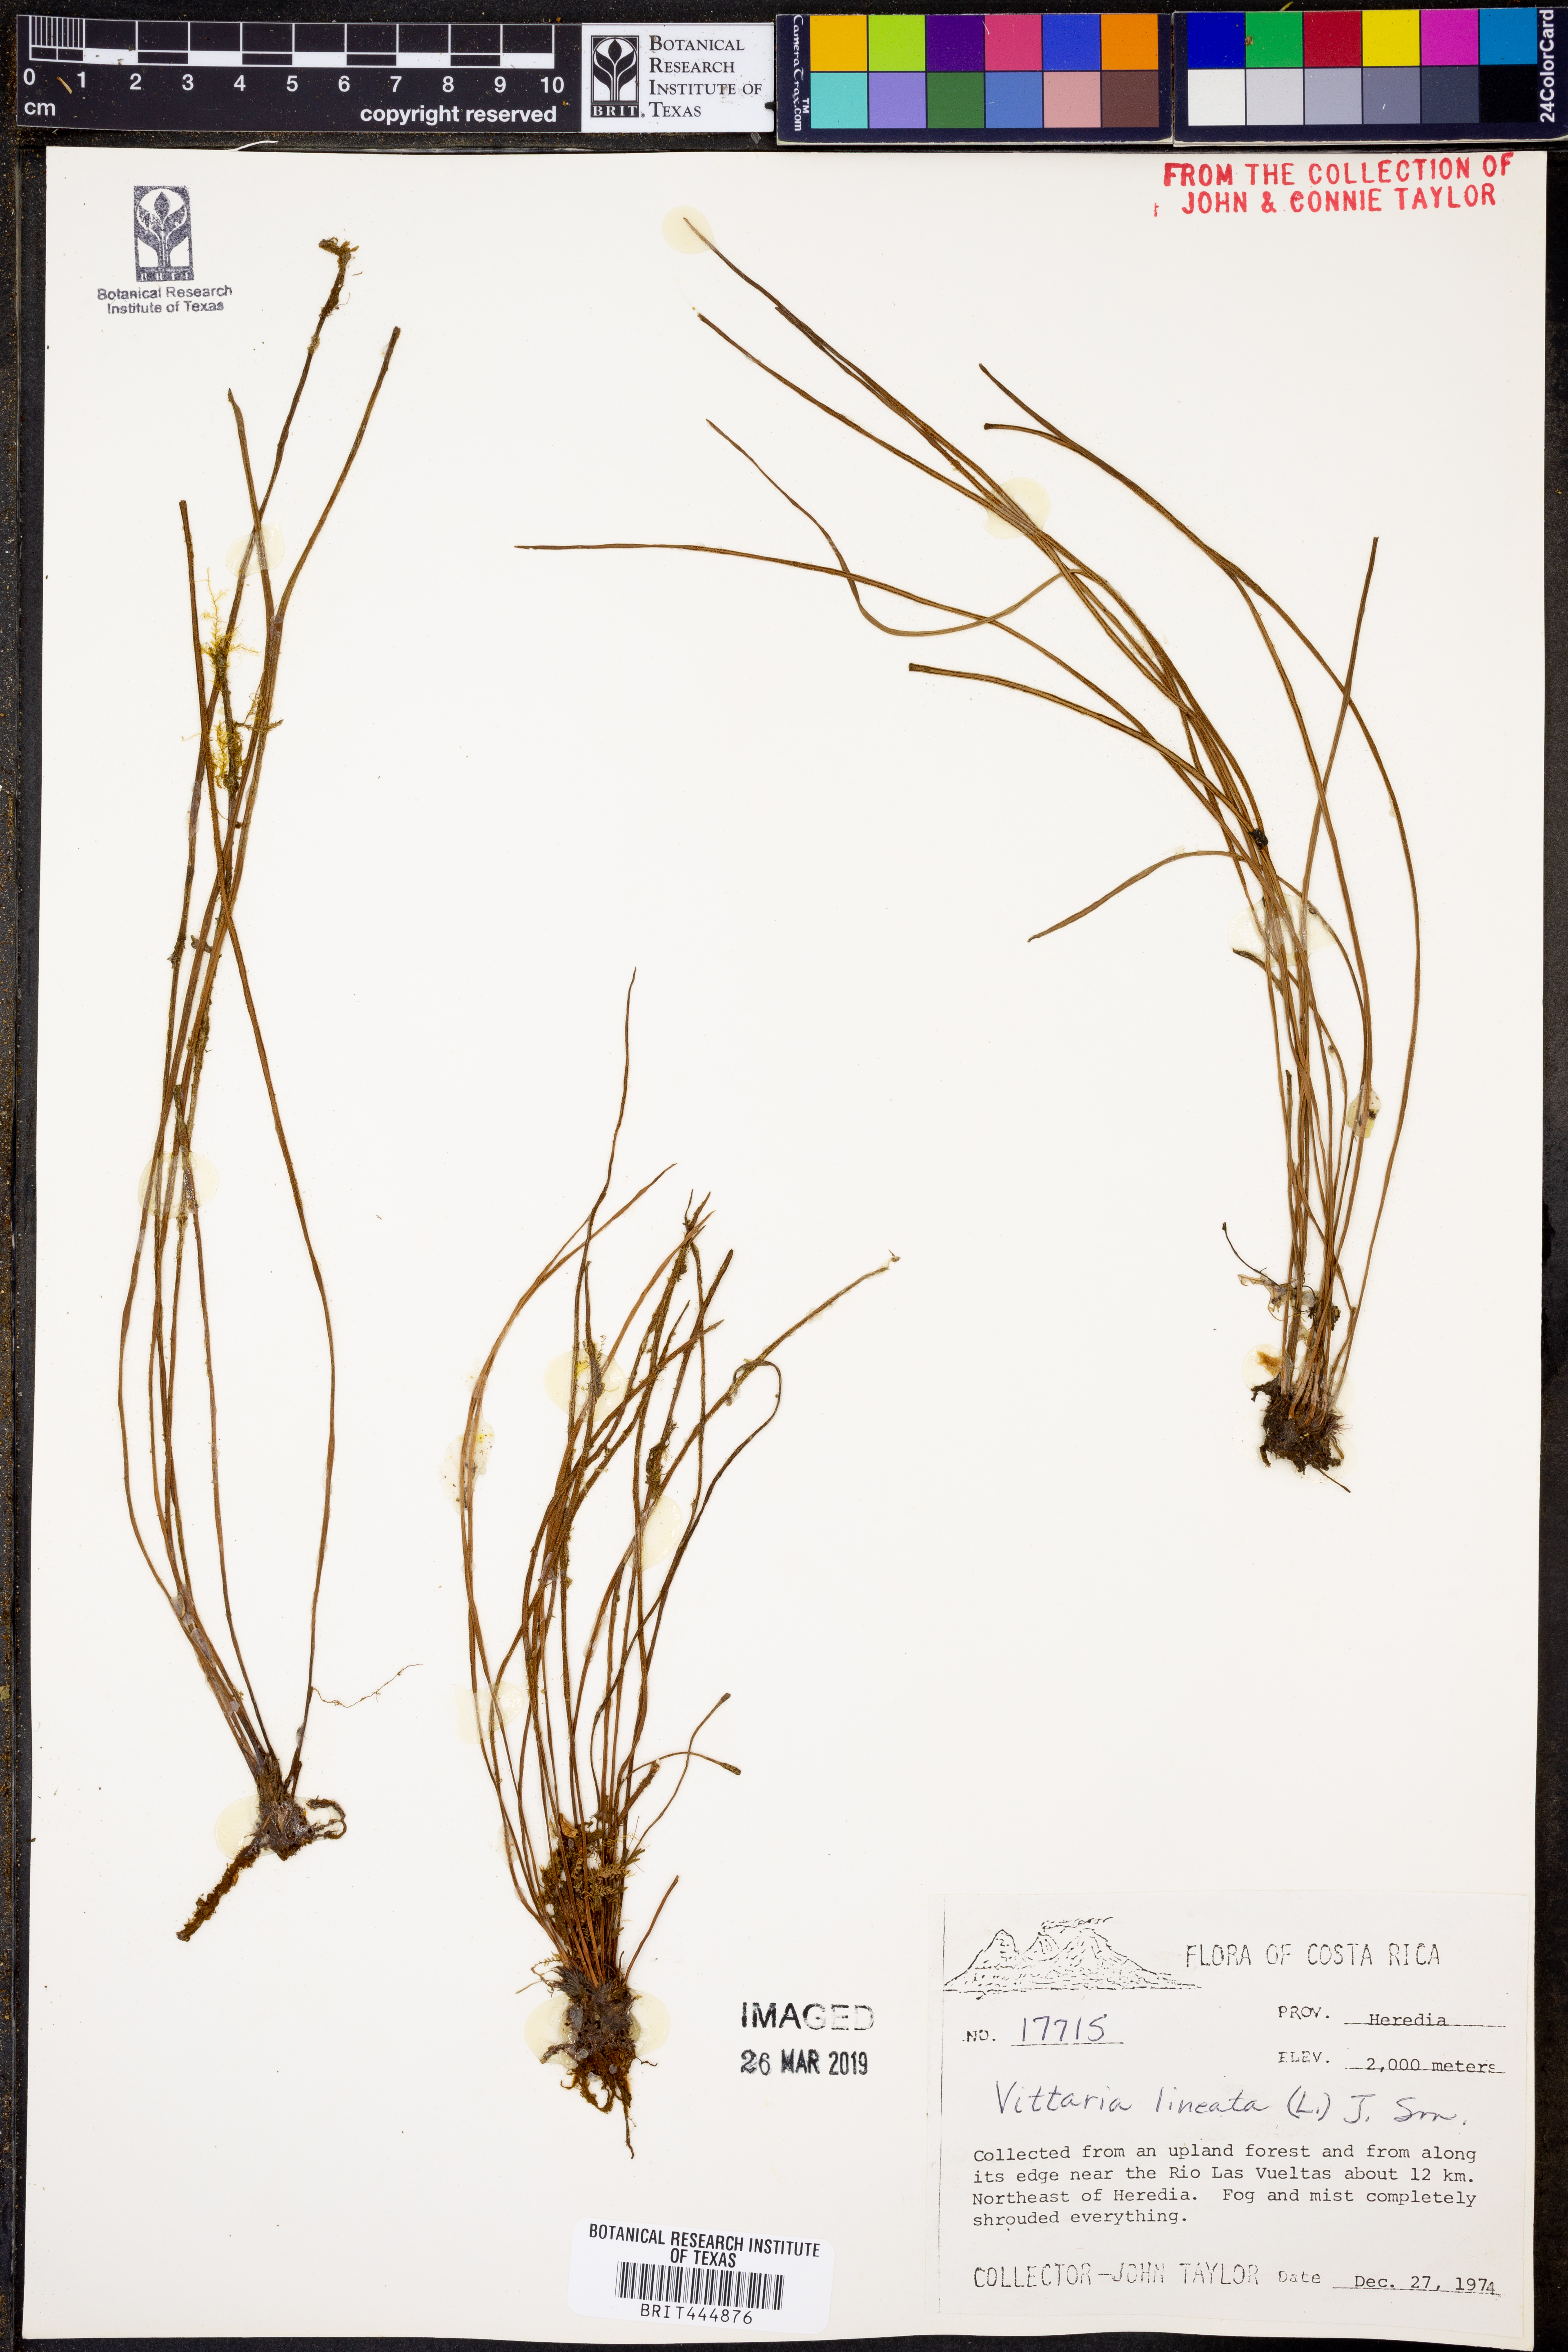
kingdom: Plantae
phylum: Tracheophyta
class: Polypodiopsida
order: Polypodiales
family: Pteridaceae
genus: Vittaria
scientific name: Vittaria lineata
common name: Shoestring fern
